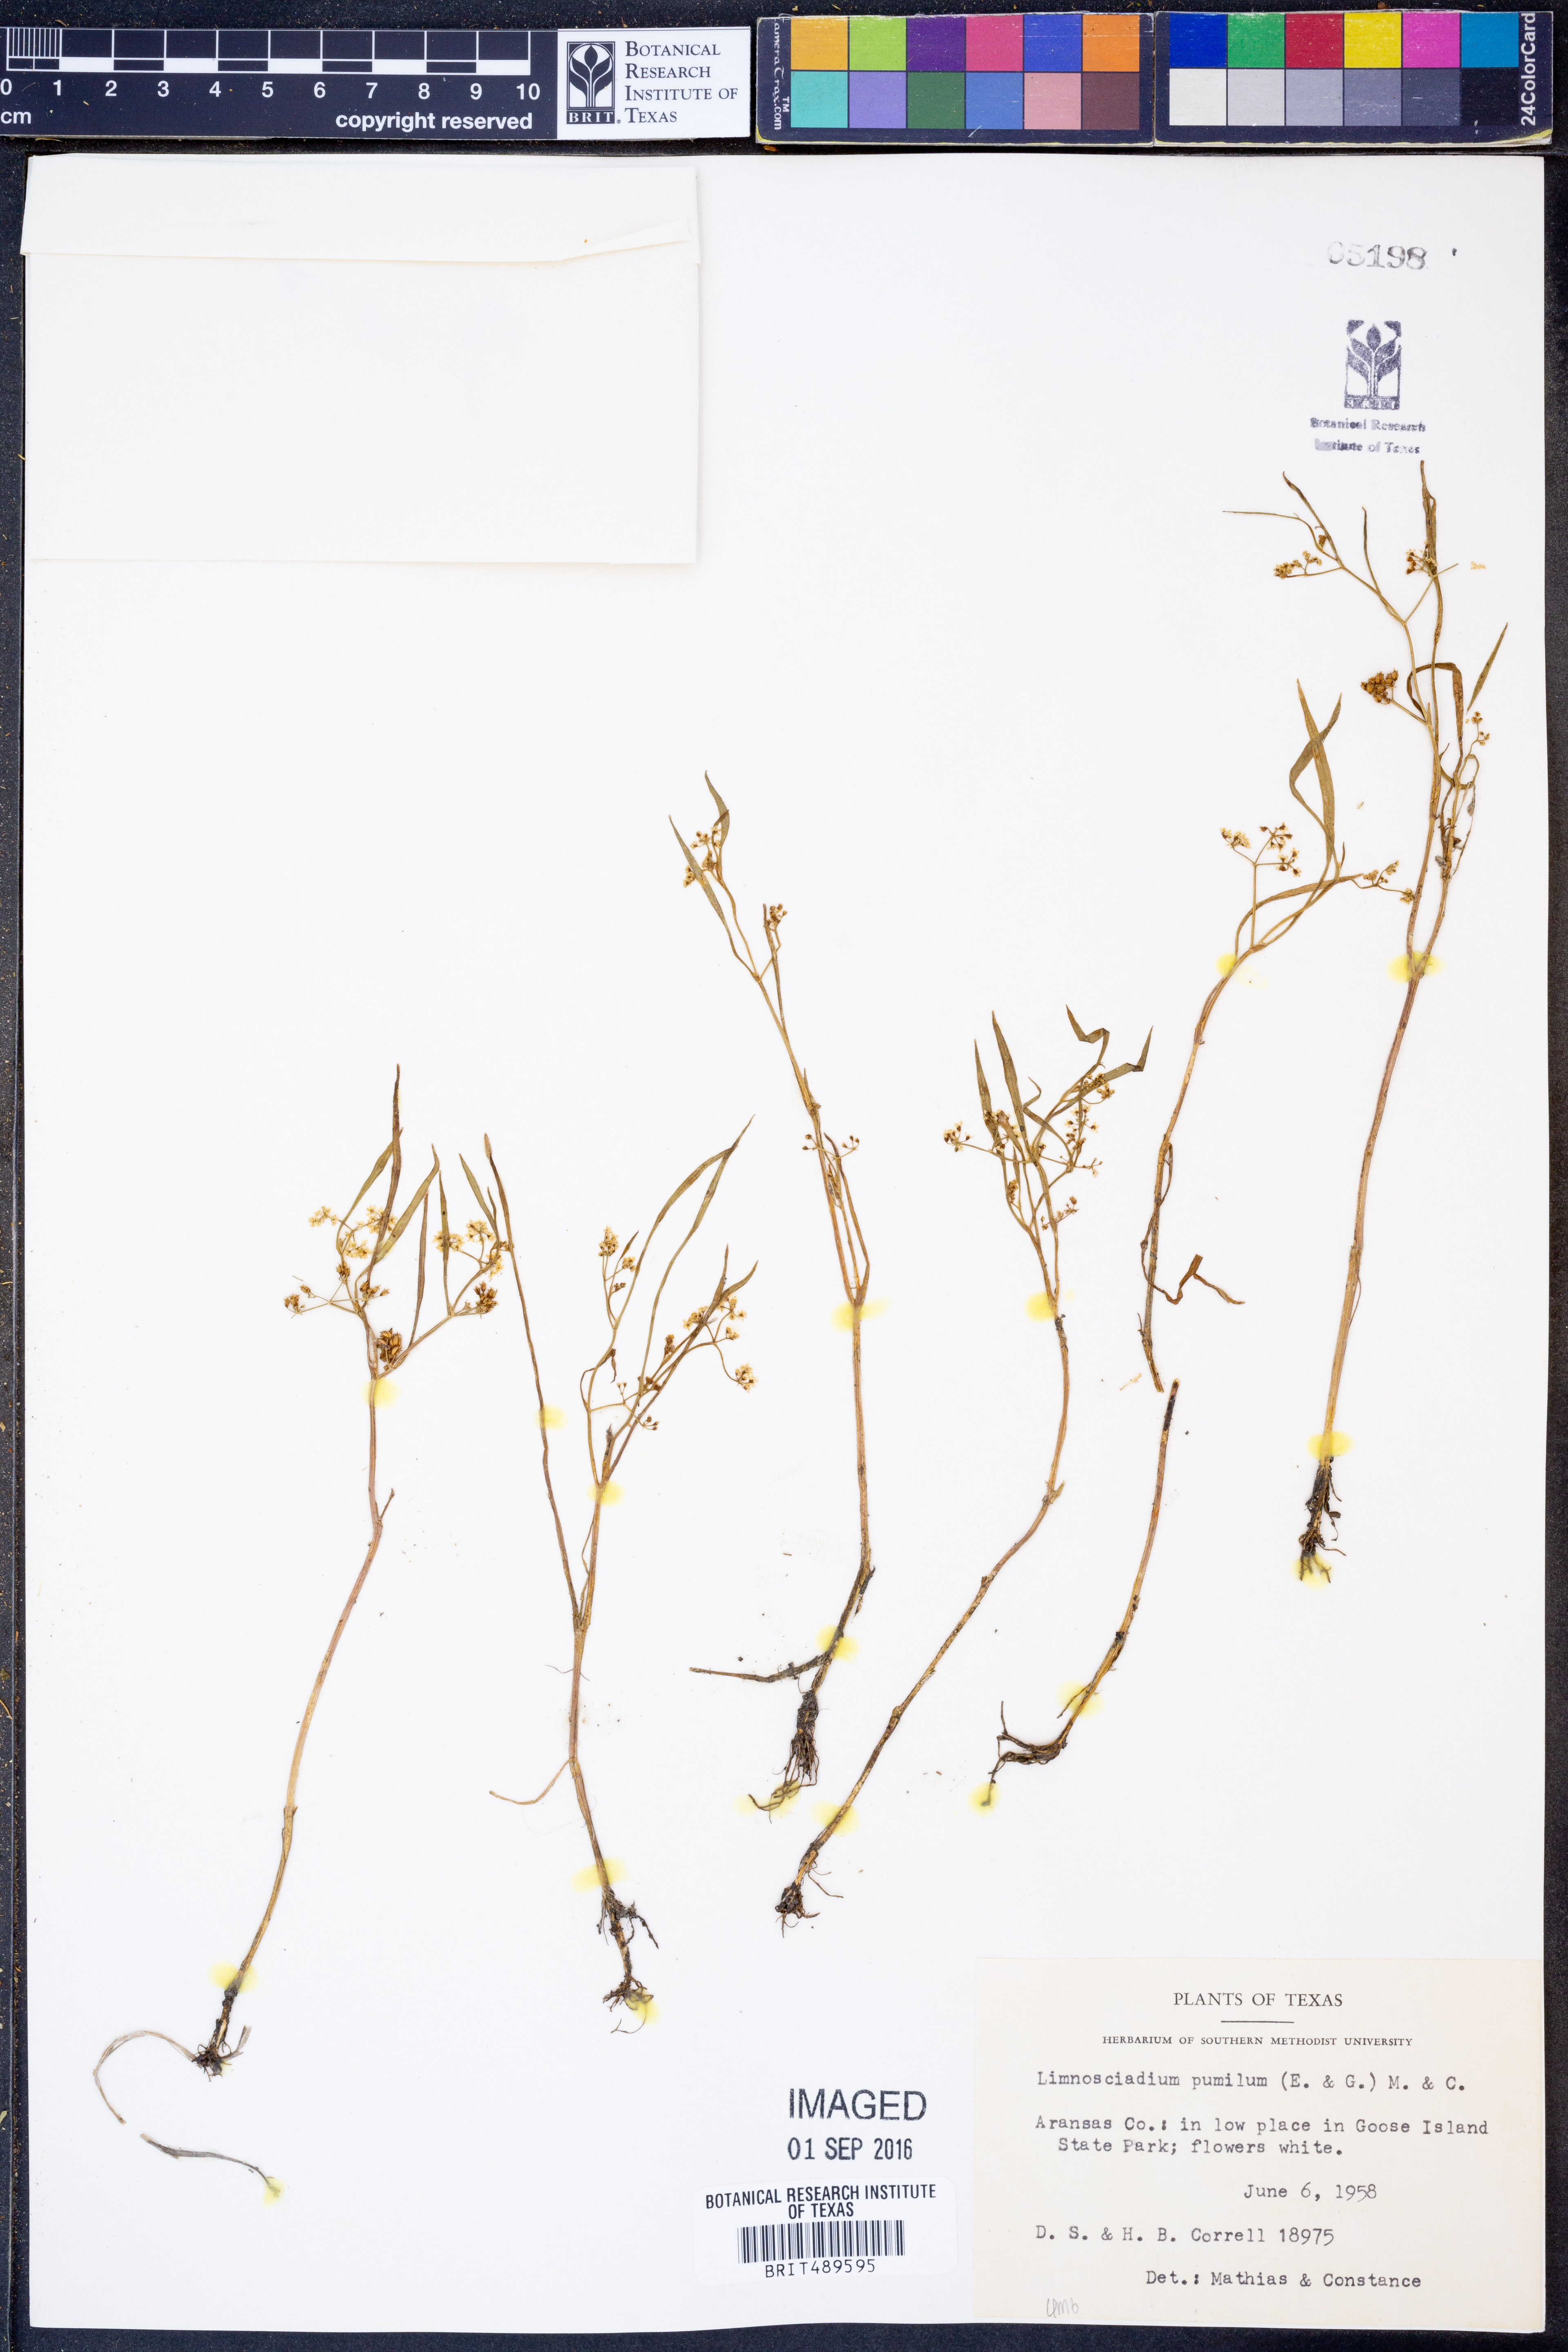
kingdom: Plantae
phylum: Tracheophyta
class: Magnoliopsida
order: Apiales
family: Apiaceae
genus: Limnosciadium
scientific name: Limnosciadium pinnatum
